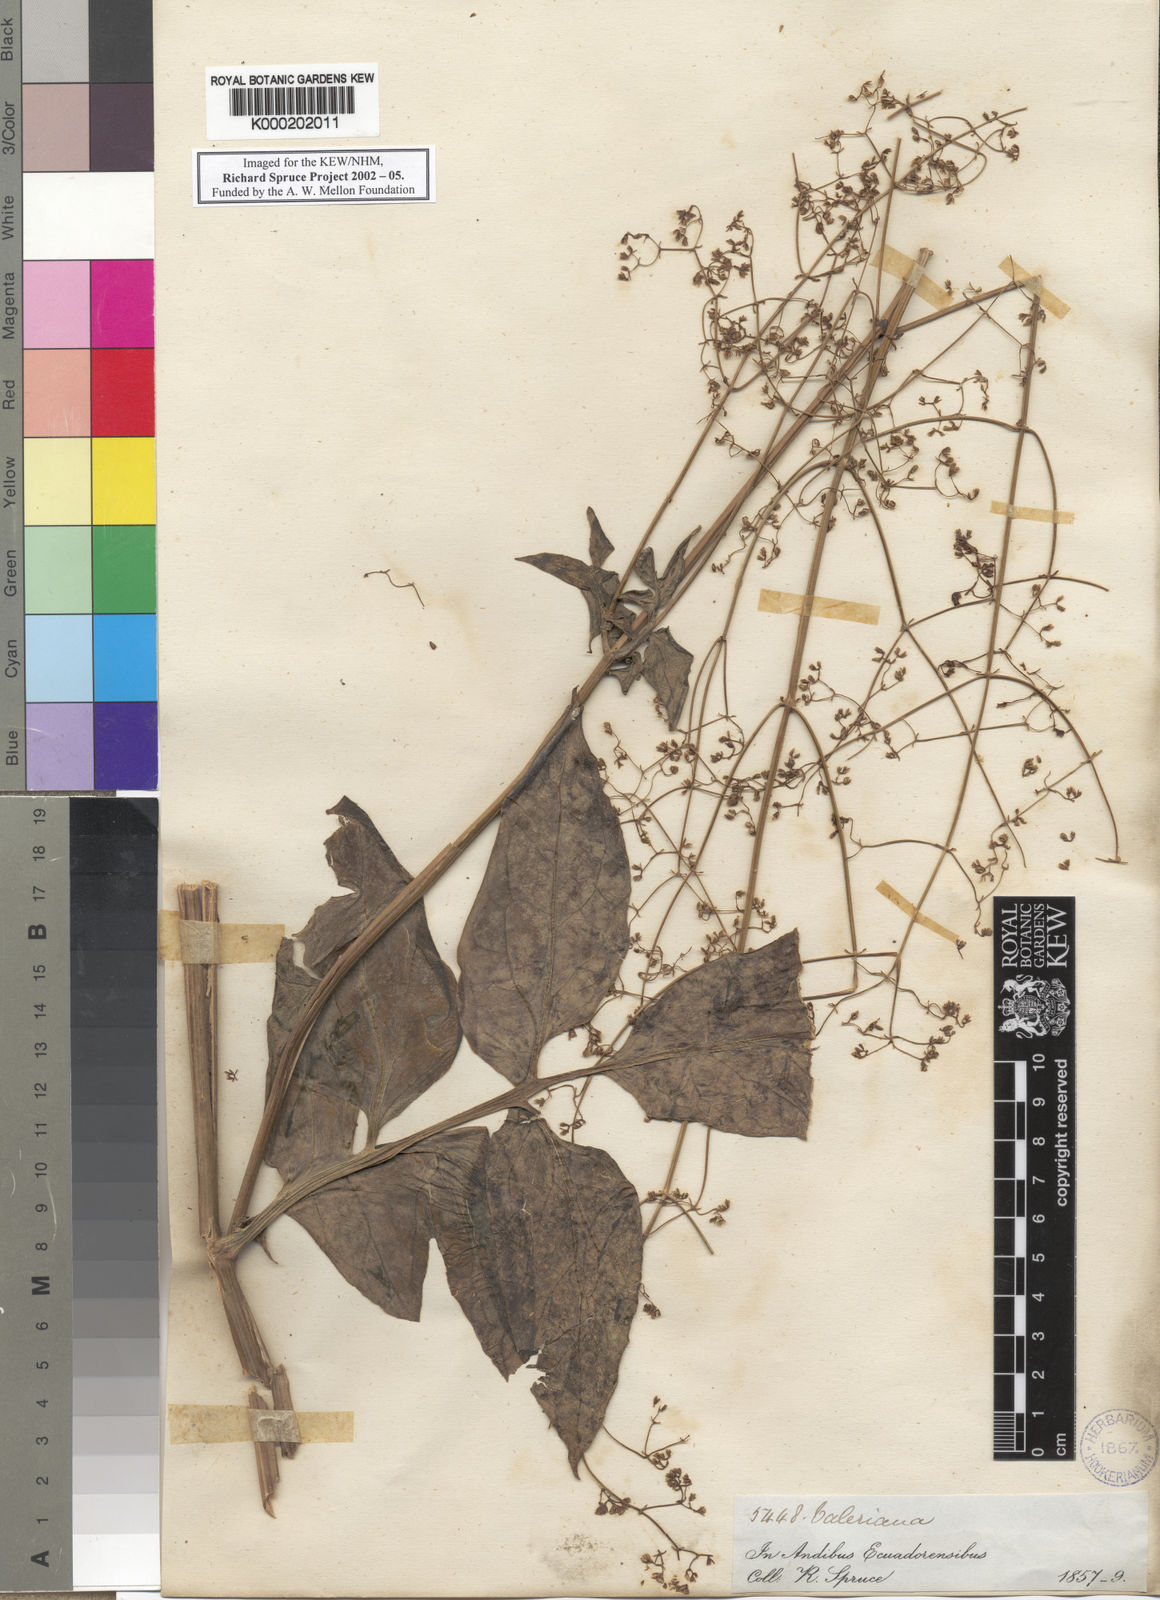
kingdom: Plantae
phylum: Tracheophyta
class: Magnoliopsida
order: Dipsacales
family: Caprifoliaceae
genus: Valeriana
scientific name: Valeriana
